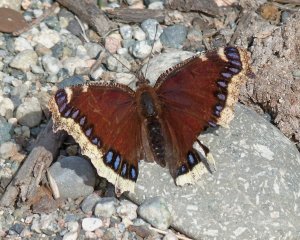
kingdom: Animalia
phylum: Arthropoda
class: Insecta
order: Lepidoptera
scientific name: Lepidoptera
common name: Butterflies
